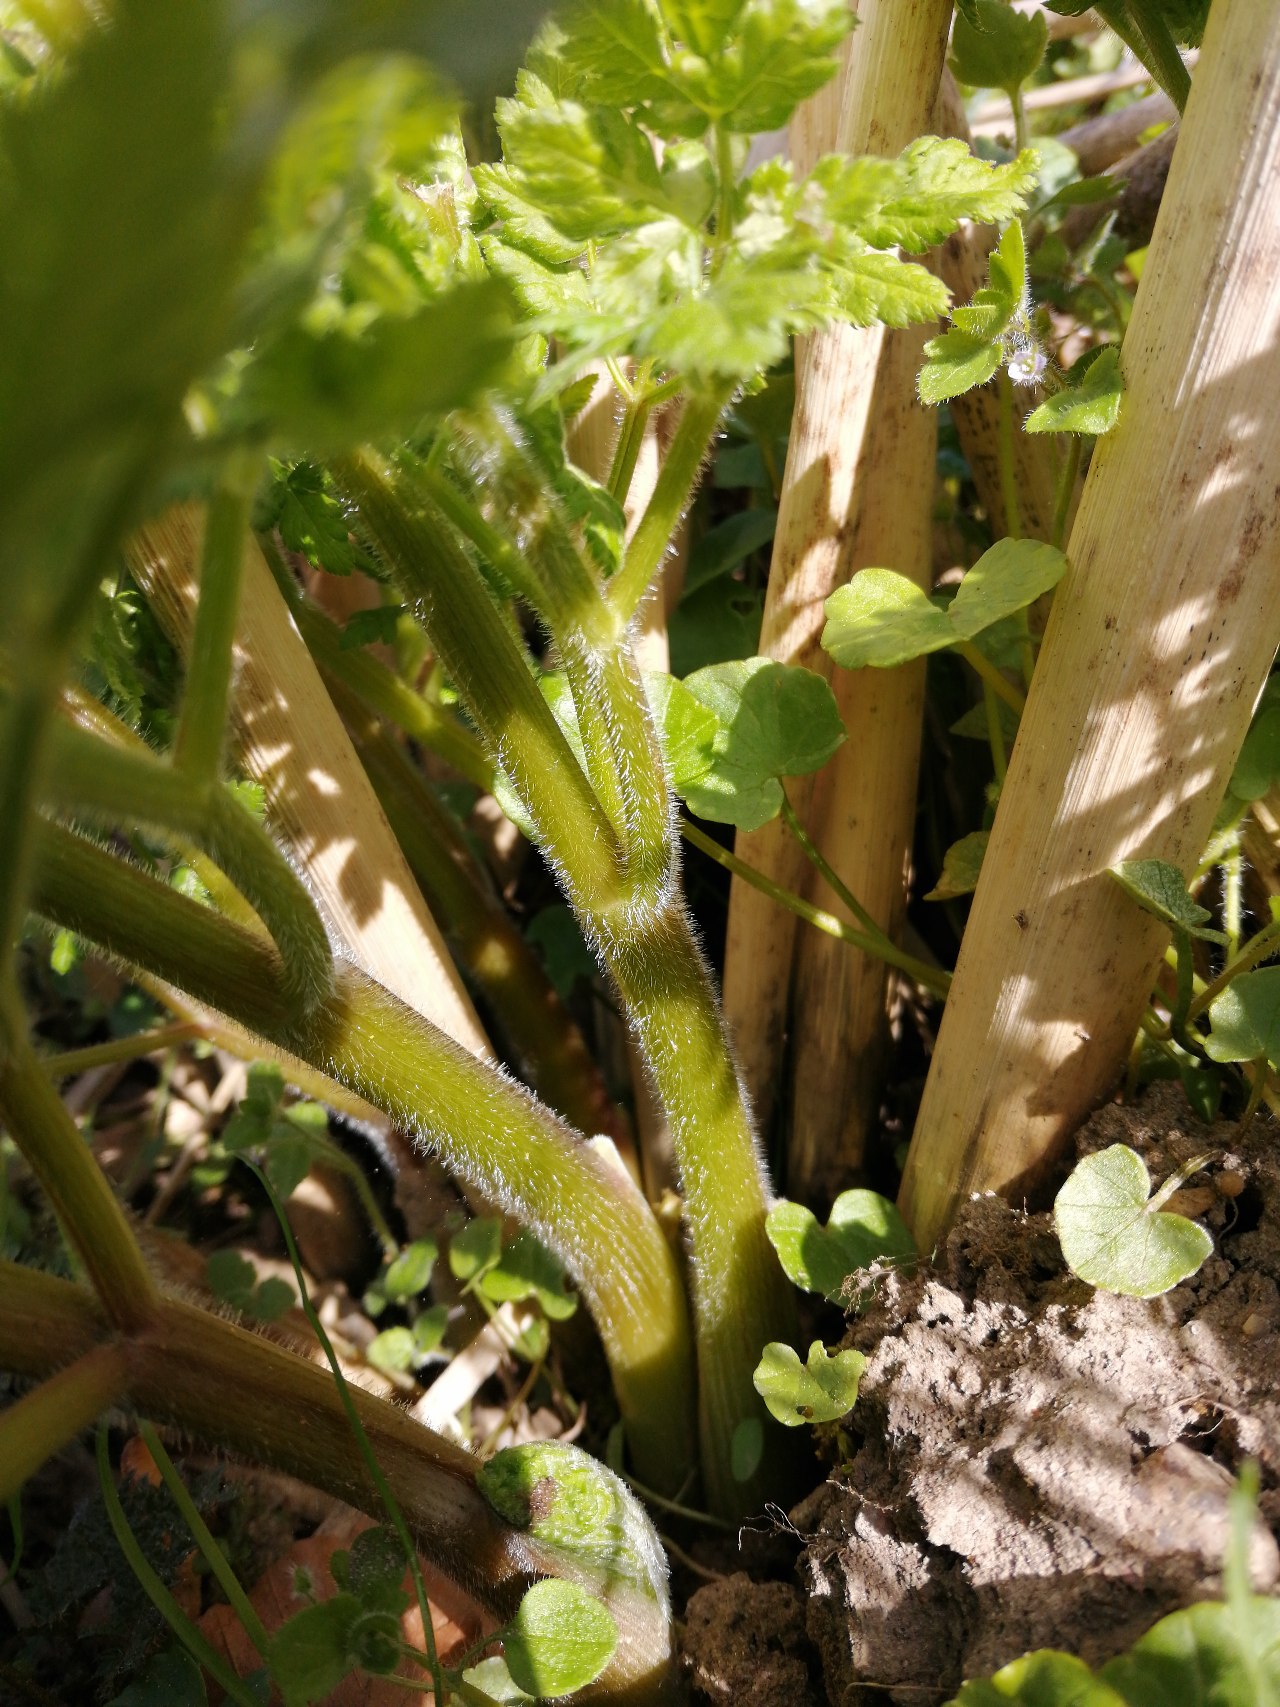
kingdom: Plantae
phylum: Tracheophyta
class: Magnoliopsida
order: Apiales
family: Apiaceae
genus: Myrrhis
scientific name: Myrrhis odorata
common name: Sødskærm
